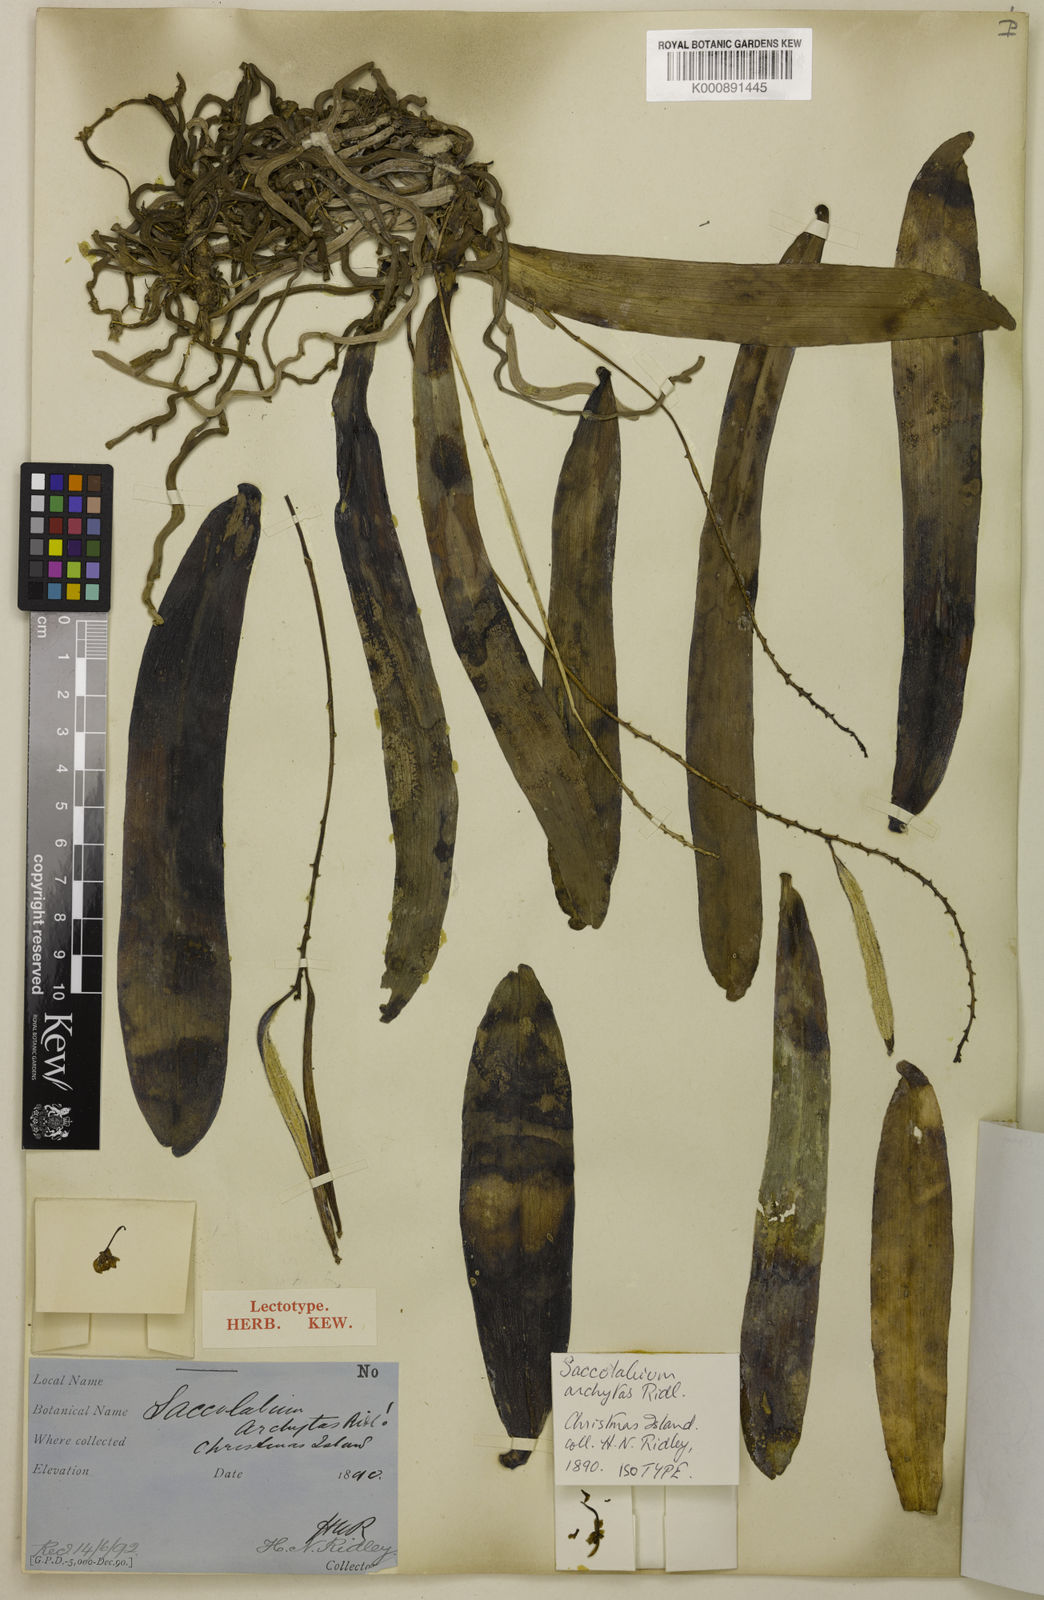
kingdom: Plantae
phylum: Tracheophyta
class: Liliopsida
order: Asparagales
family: Orchidaceae
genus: Brachypeza
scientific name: Brachypeza archytas
